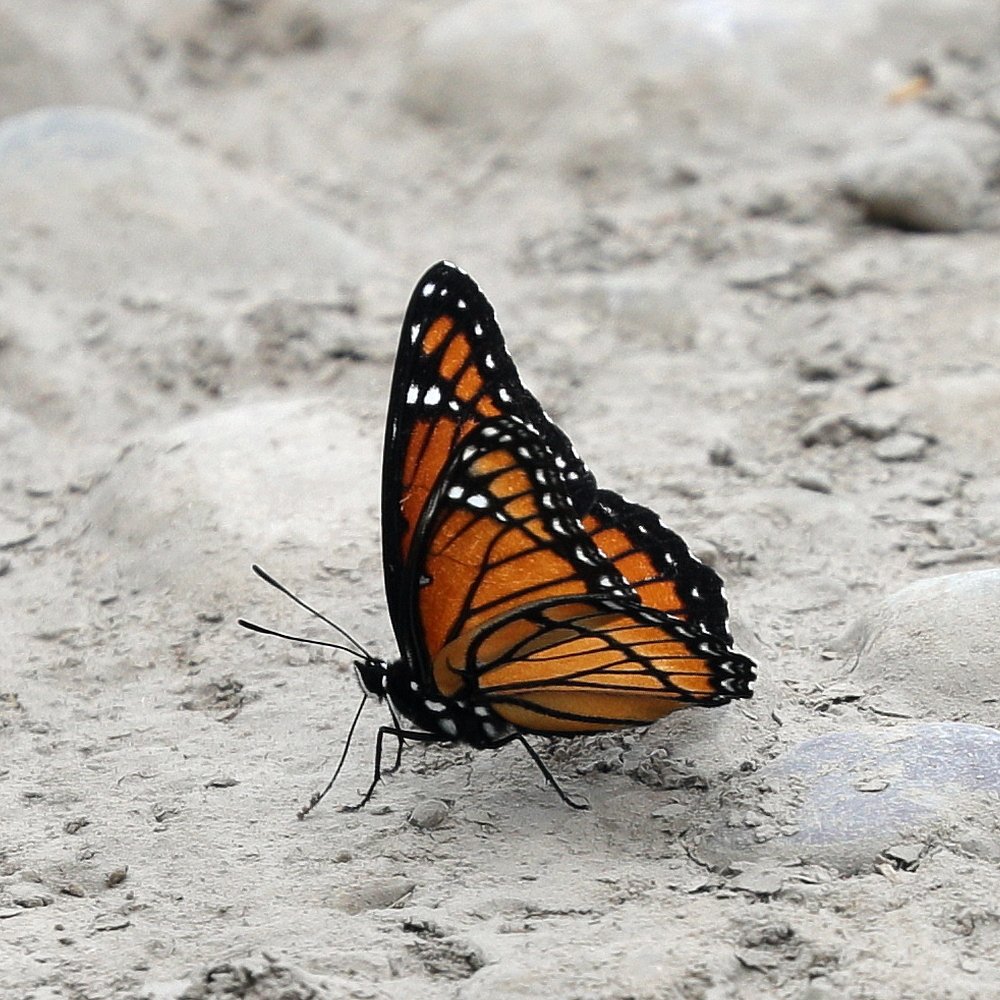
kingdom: Animalia
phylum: Arthropoda
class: Insecta
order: Lepidoptera
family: Nymphalidae
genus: Limenitis
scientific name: Limenitis archippus
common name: Viceroy
